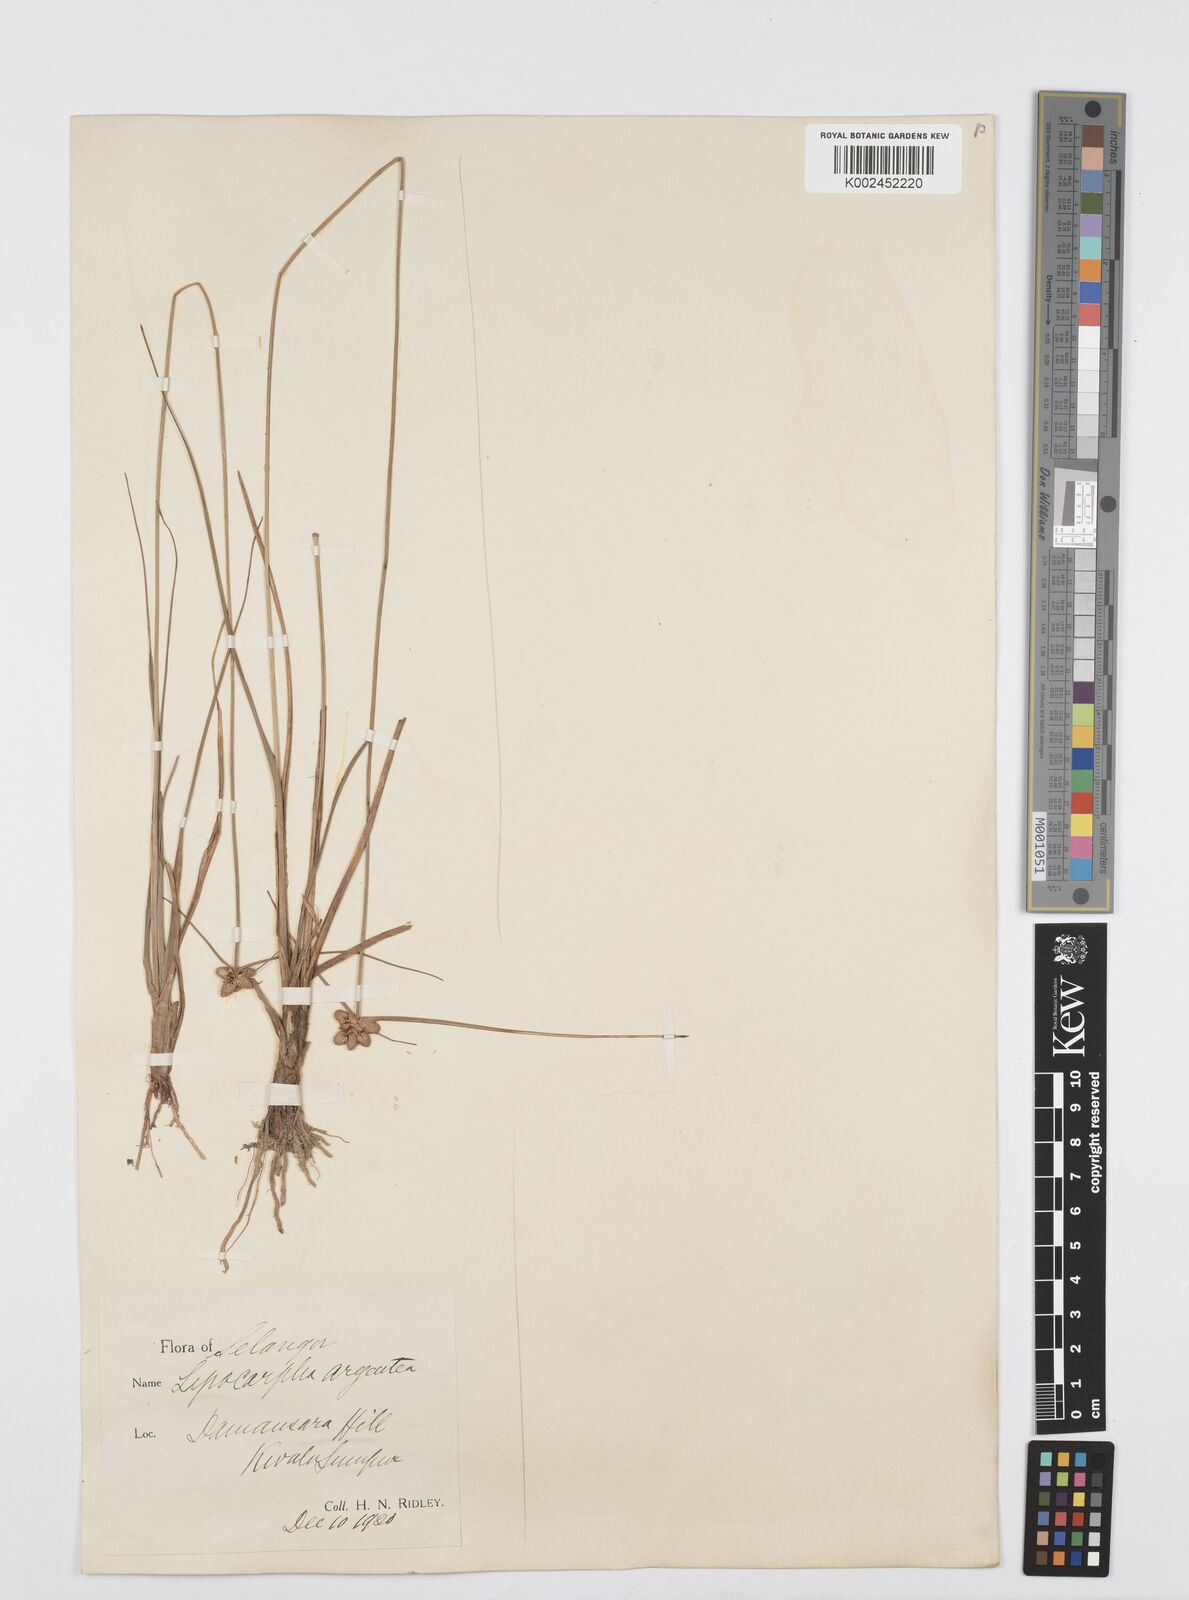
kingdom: Plantae
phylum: Tracheophyta
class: Liliopsida
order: Poales
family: Cyperaceae
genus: Cyperus
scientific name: Cyperus
